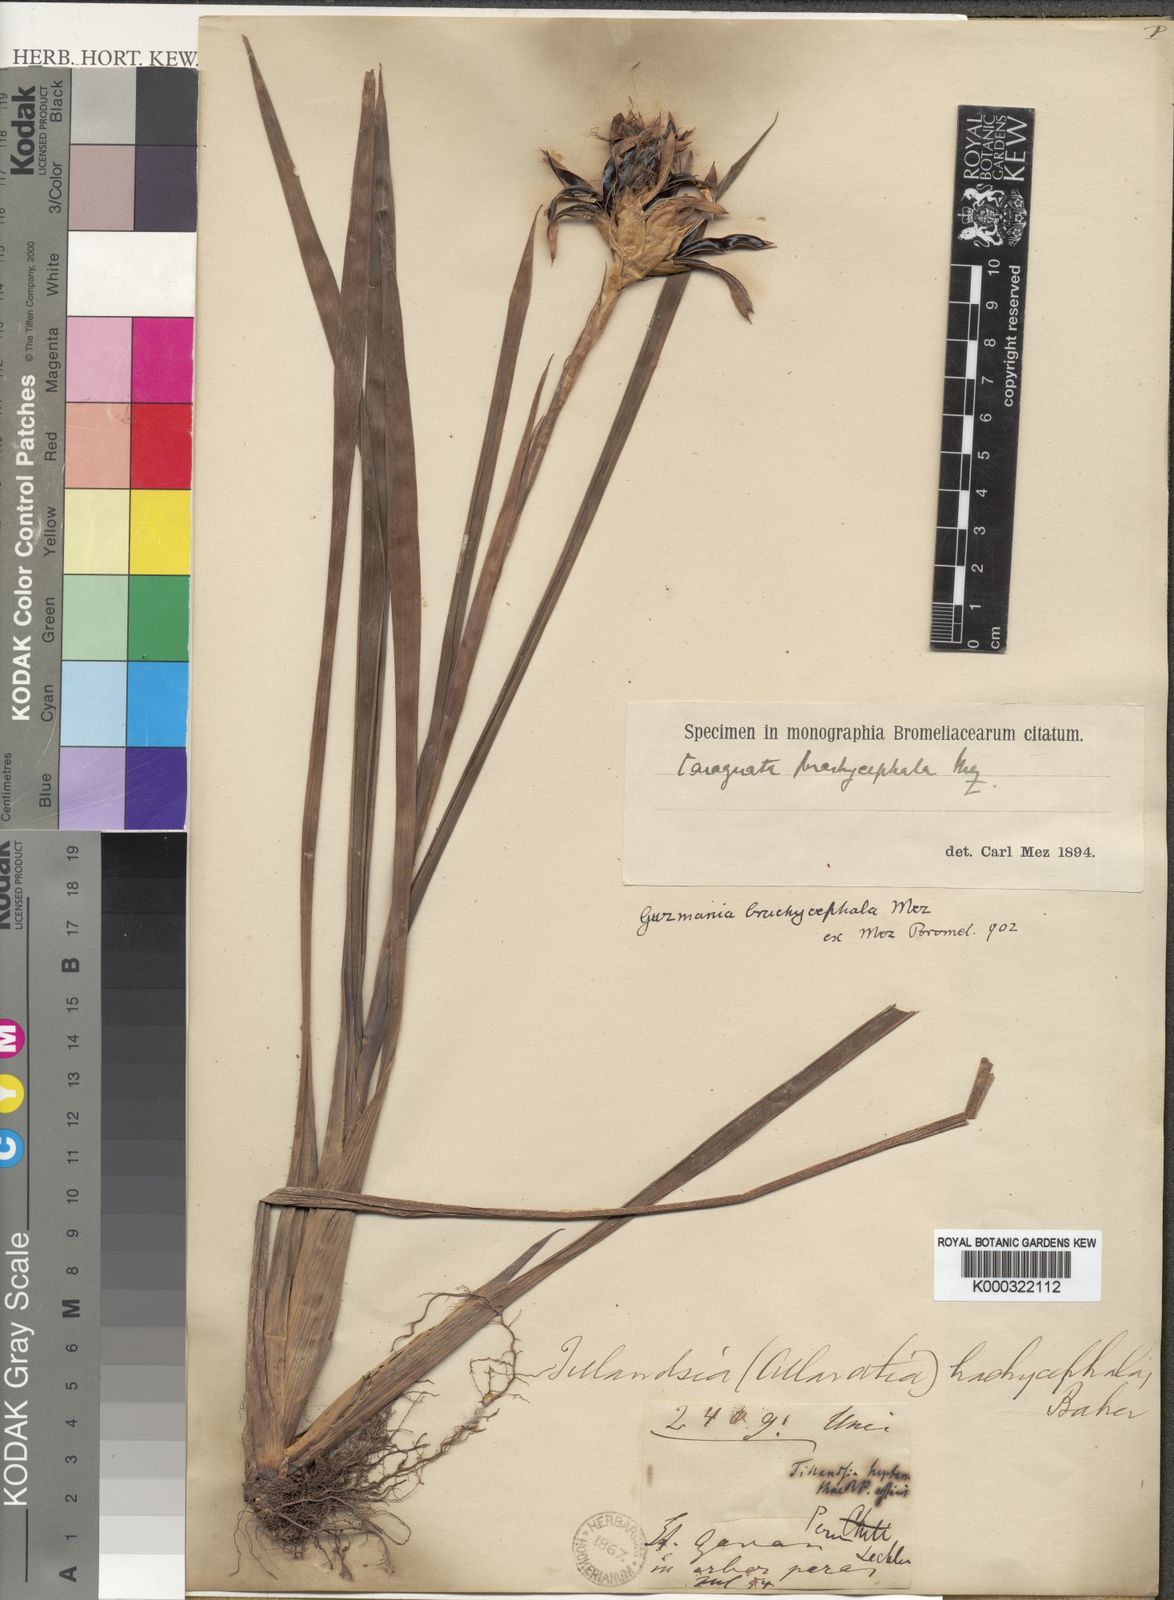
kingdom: Plantae
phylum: Tracheophyta
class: Liliopsida
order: Poales
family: Bromeliaceae
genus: Guzmania
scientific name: Guzmania strobilantha
